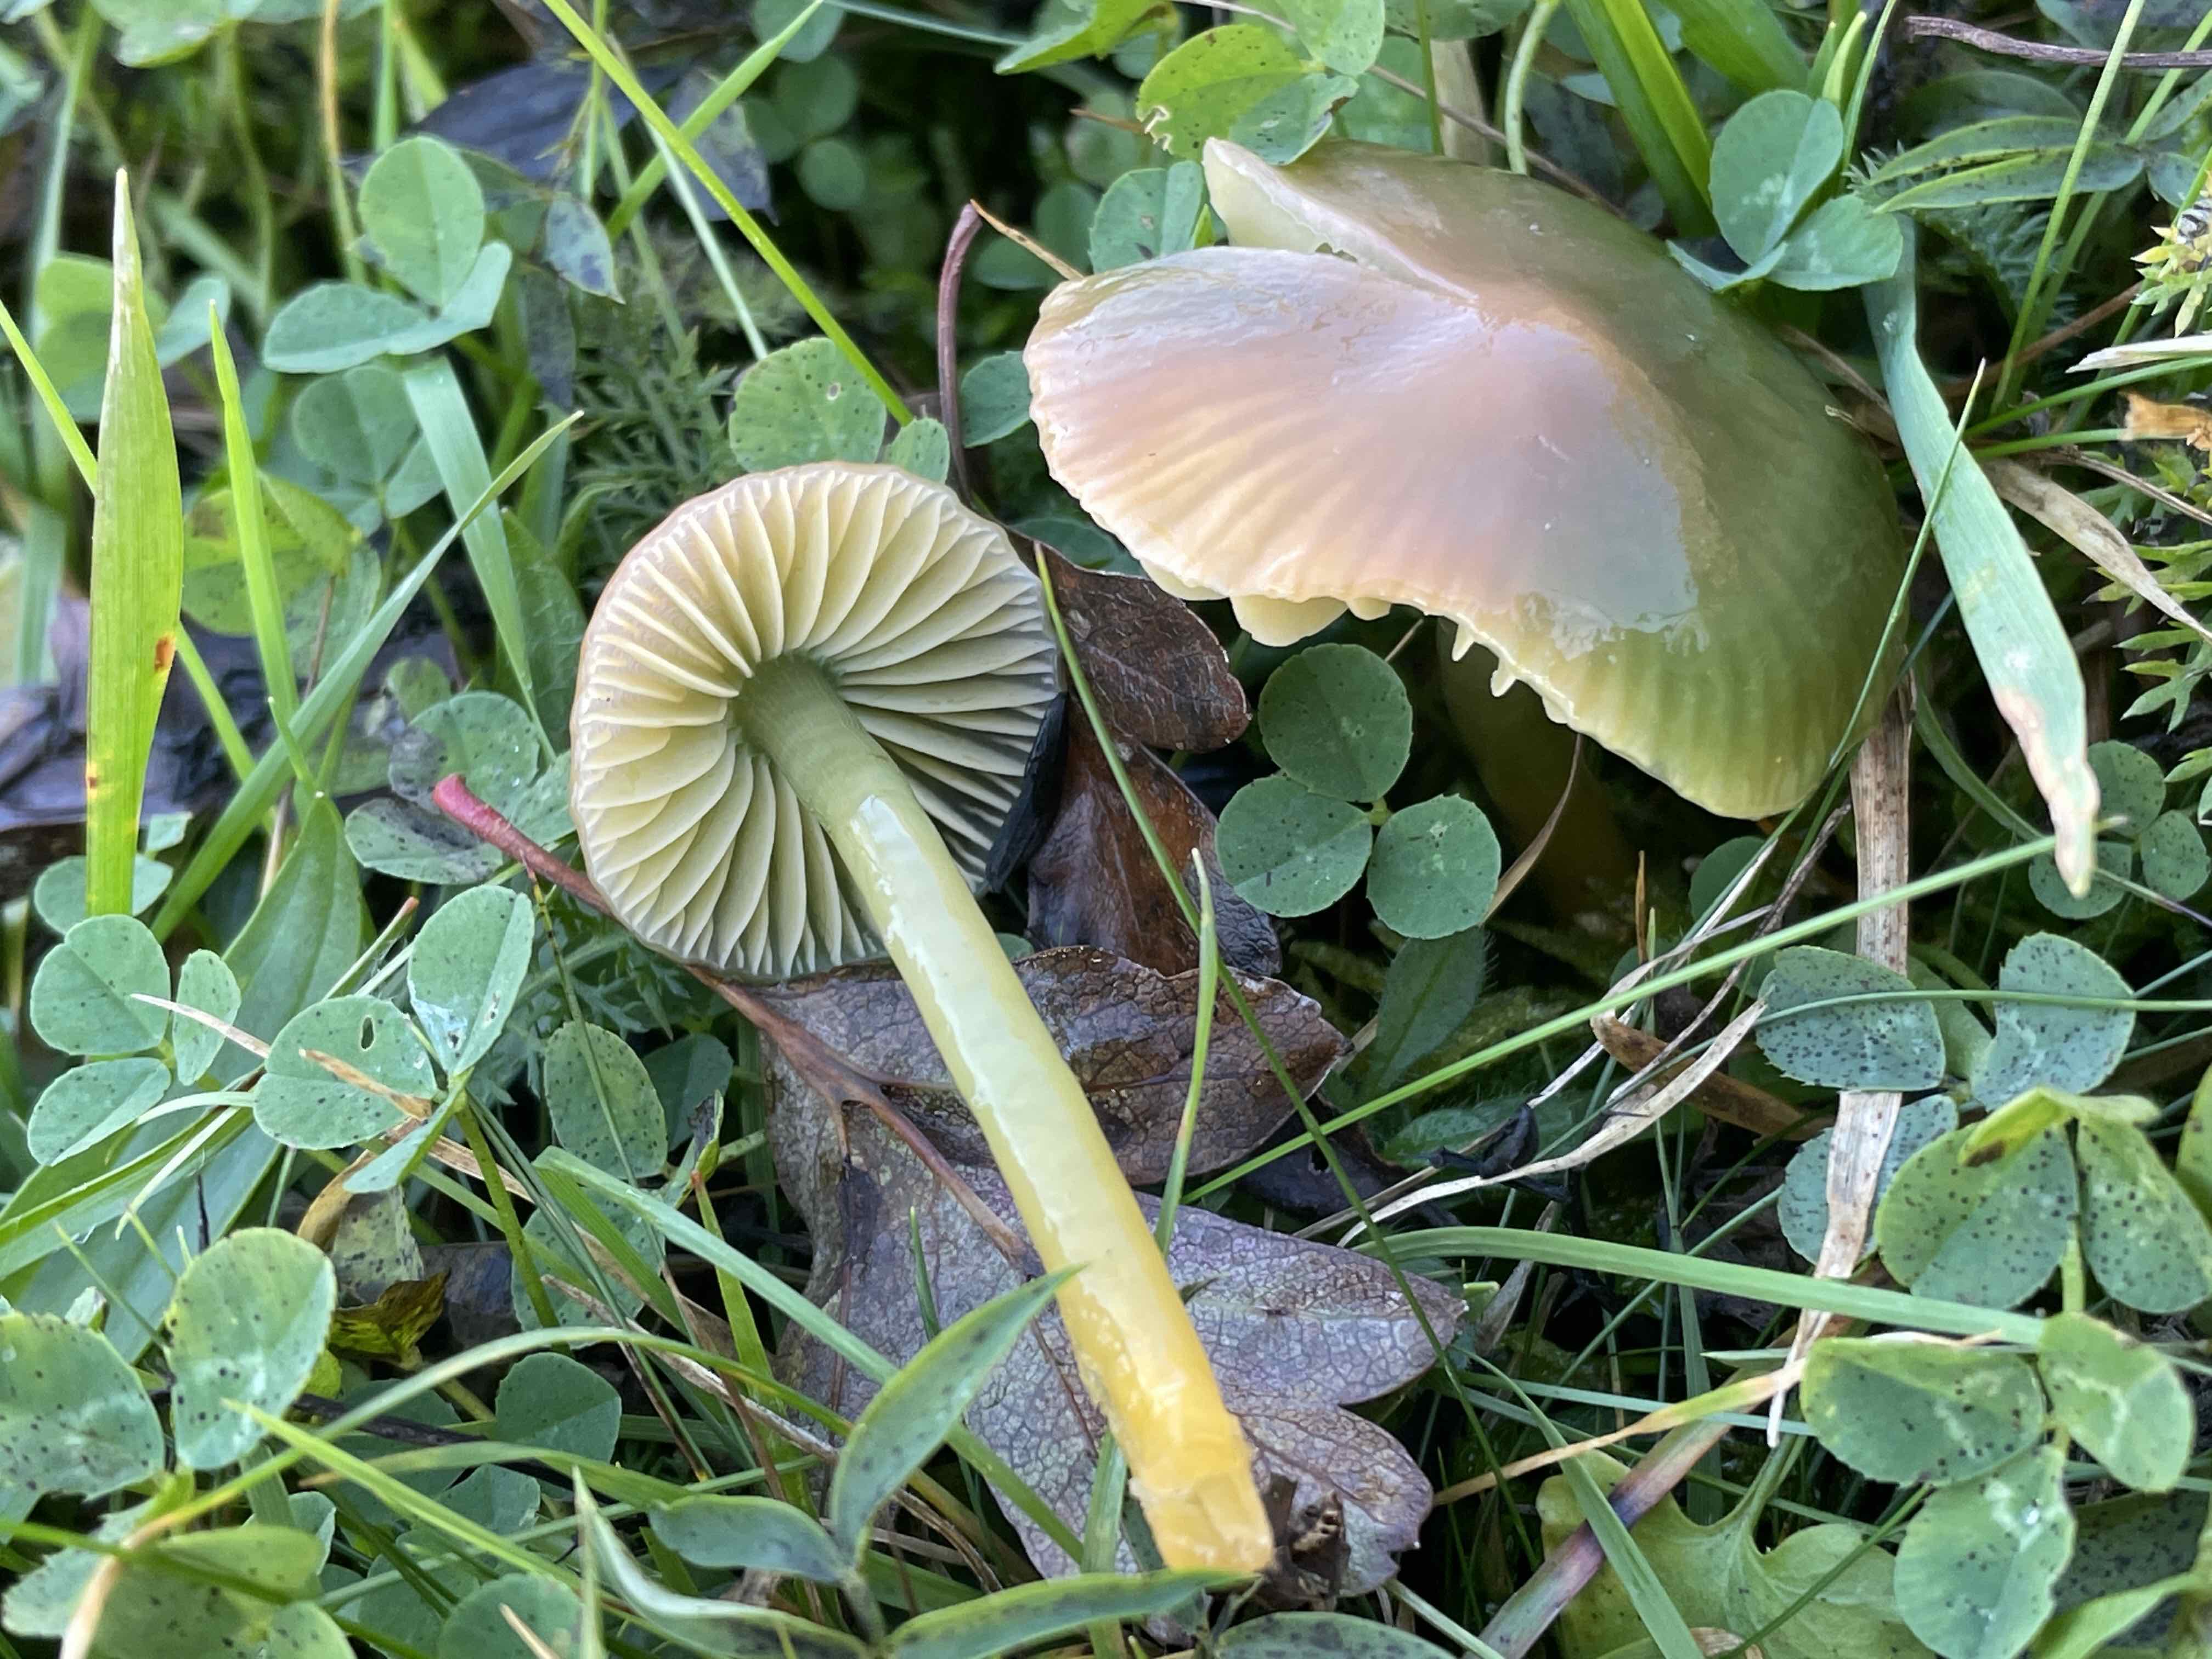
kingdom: Fungi
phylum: Basidiomycota
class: Agaricomycetes
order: Agaricales
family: Hygrophoraceae
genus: Gliophorus
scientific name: Gliophorus psittacinus
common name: papegøje-vokshat
